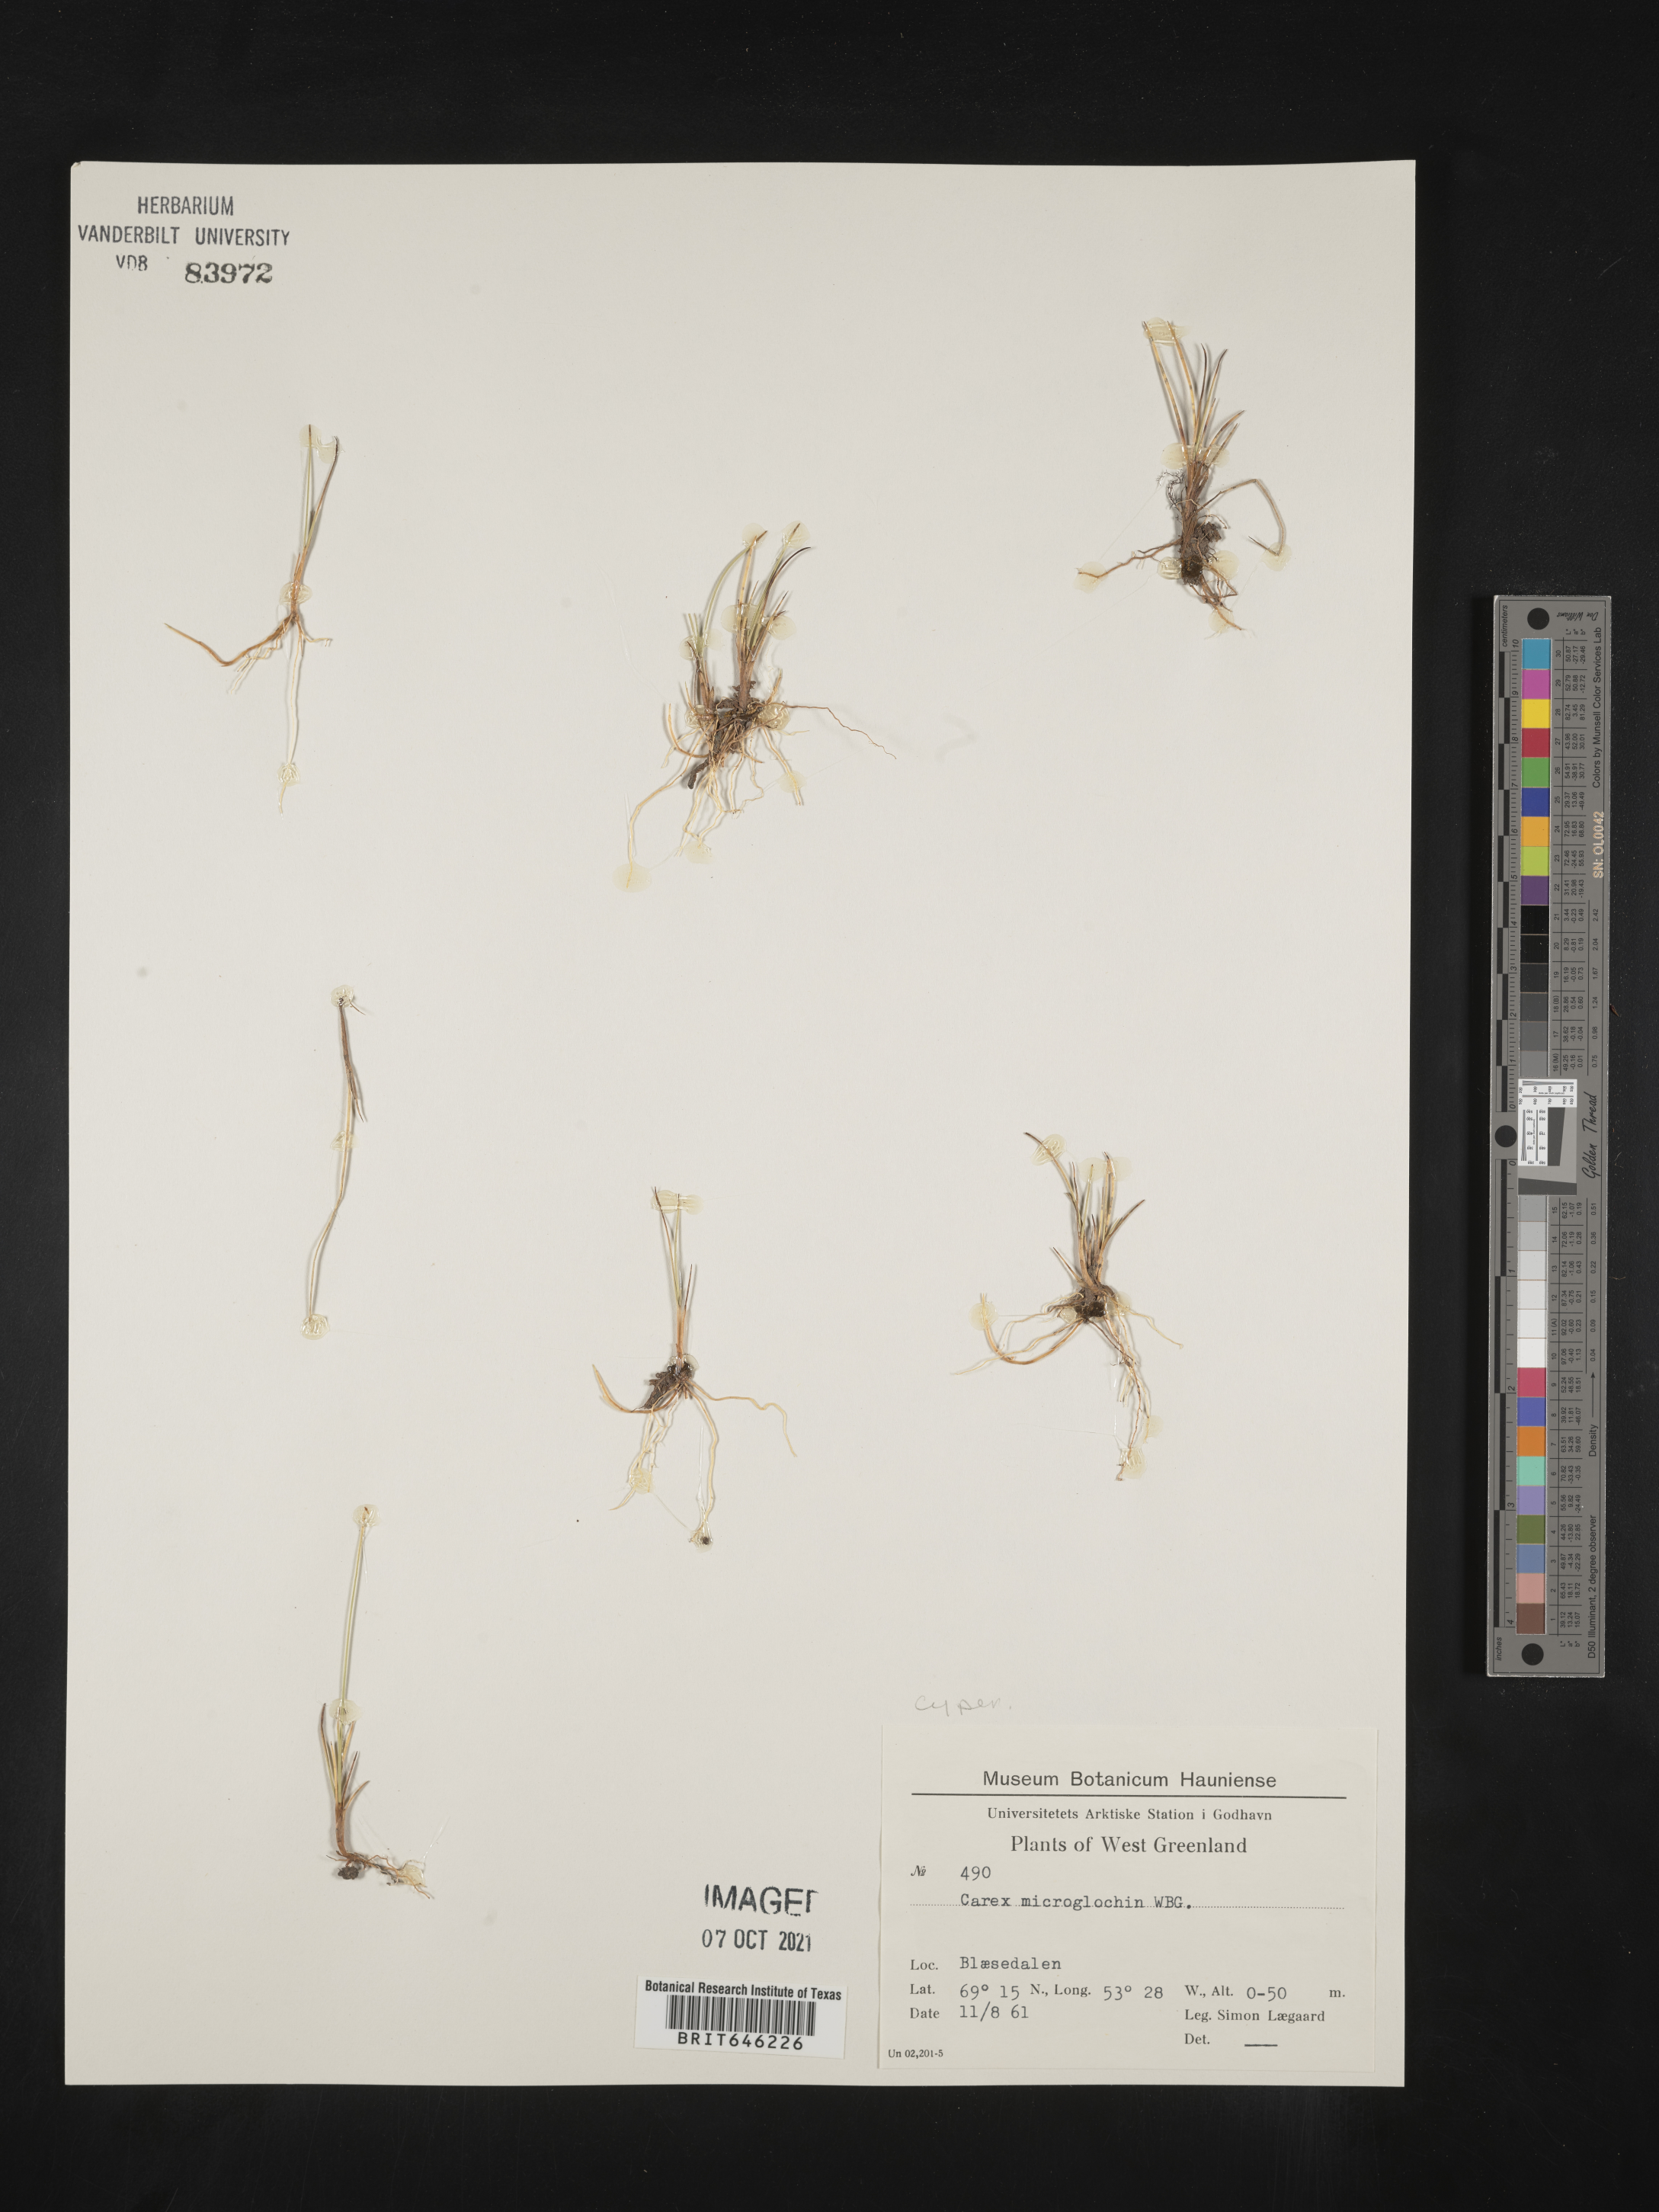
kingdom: Plantae
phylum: Tracheophyta
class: Liliopsida
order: Poales
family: Cyperaceae
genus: Carex
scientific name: Carex microglochin
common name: Bristle sedge
